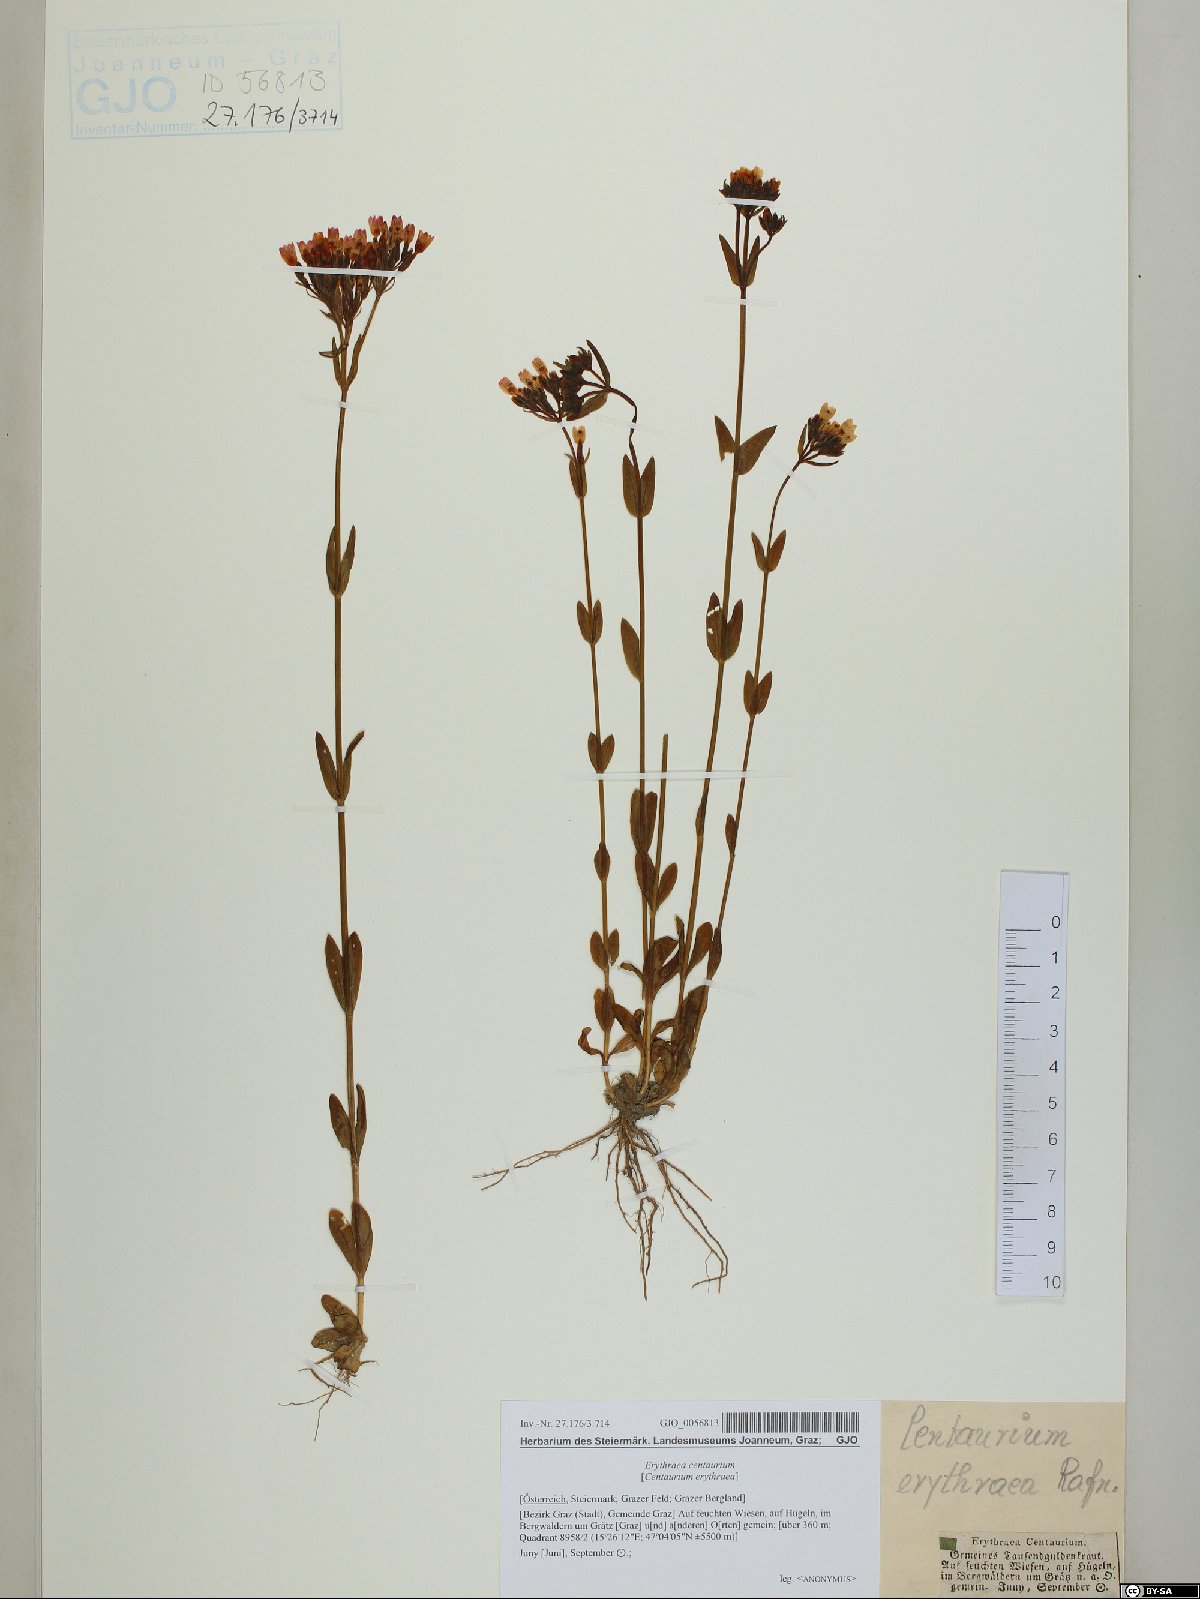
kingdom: Plantae
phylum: Tracheophyta
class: Magnoliopsida
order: Gentianales
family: Gentianaceae
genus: Centaurium
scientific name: Centaurium erythraea
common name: Common centaury
